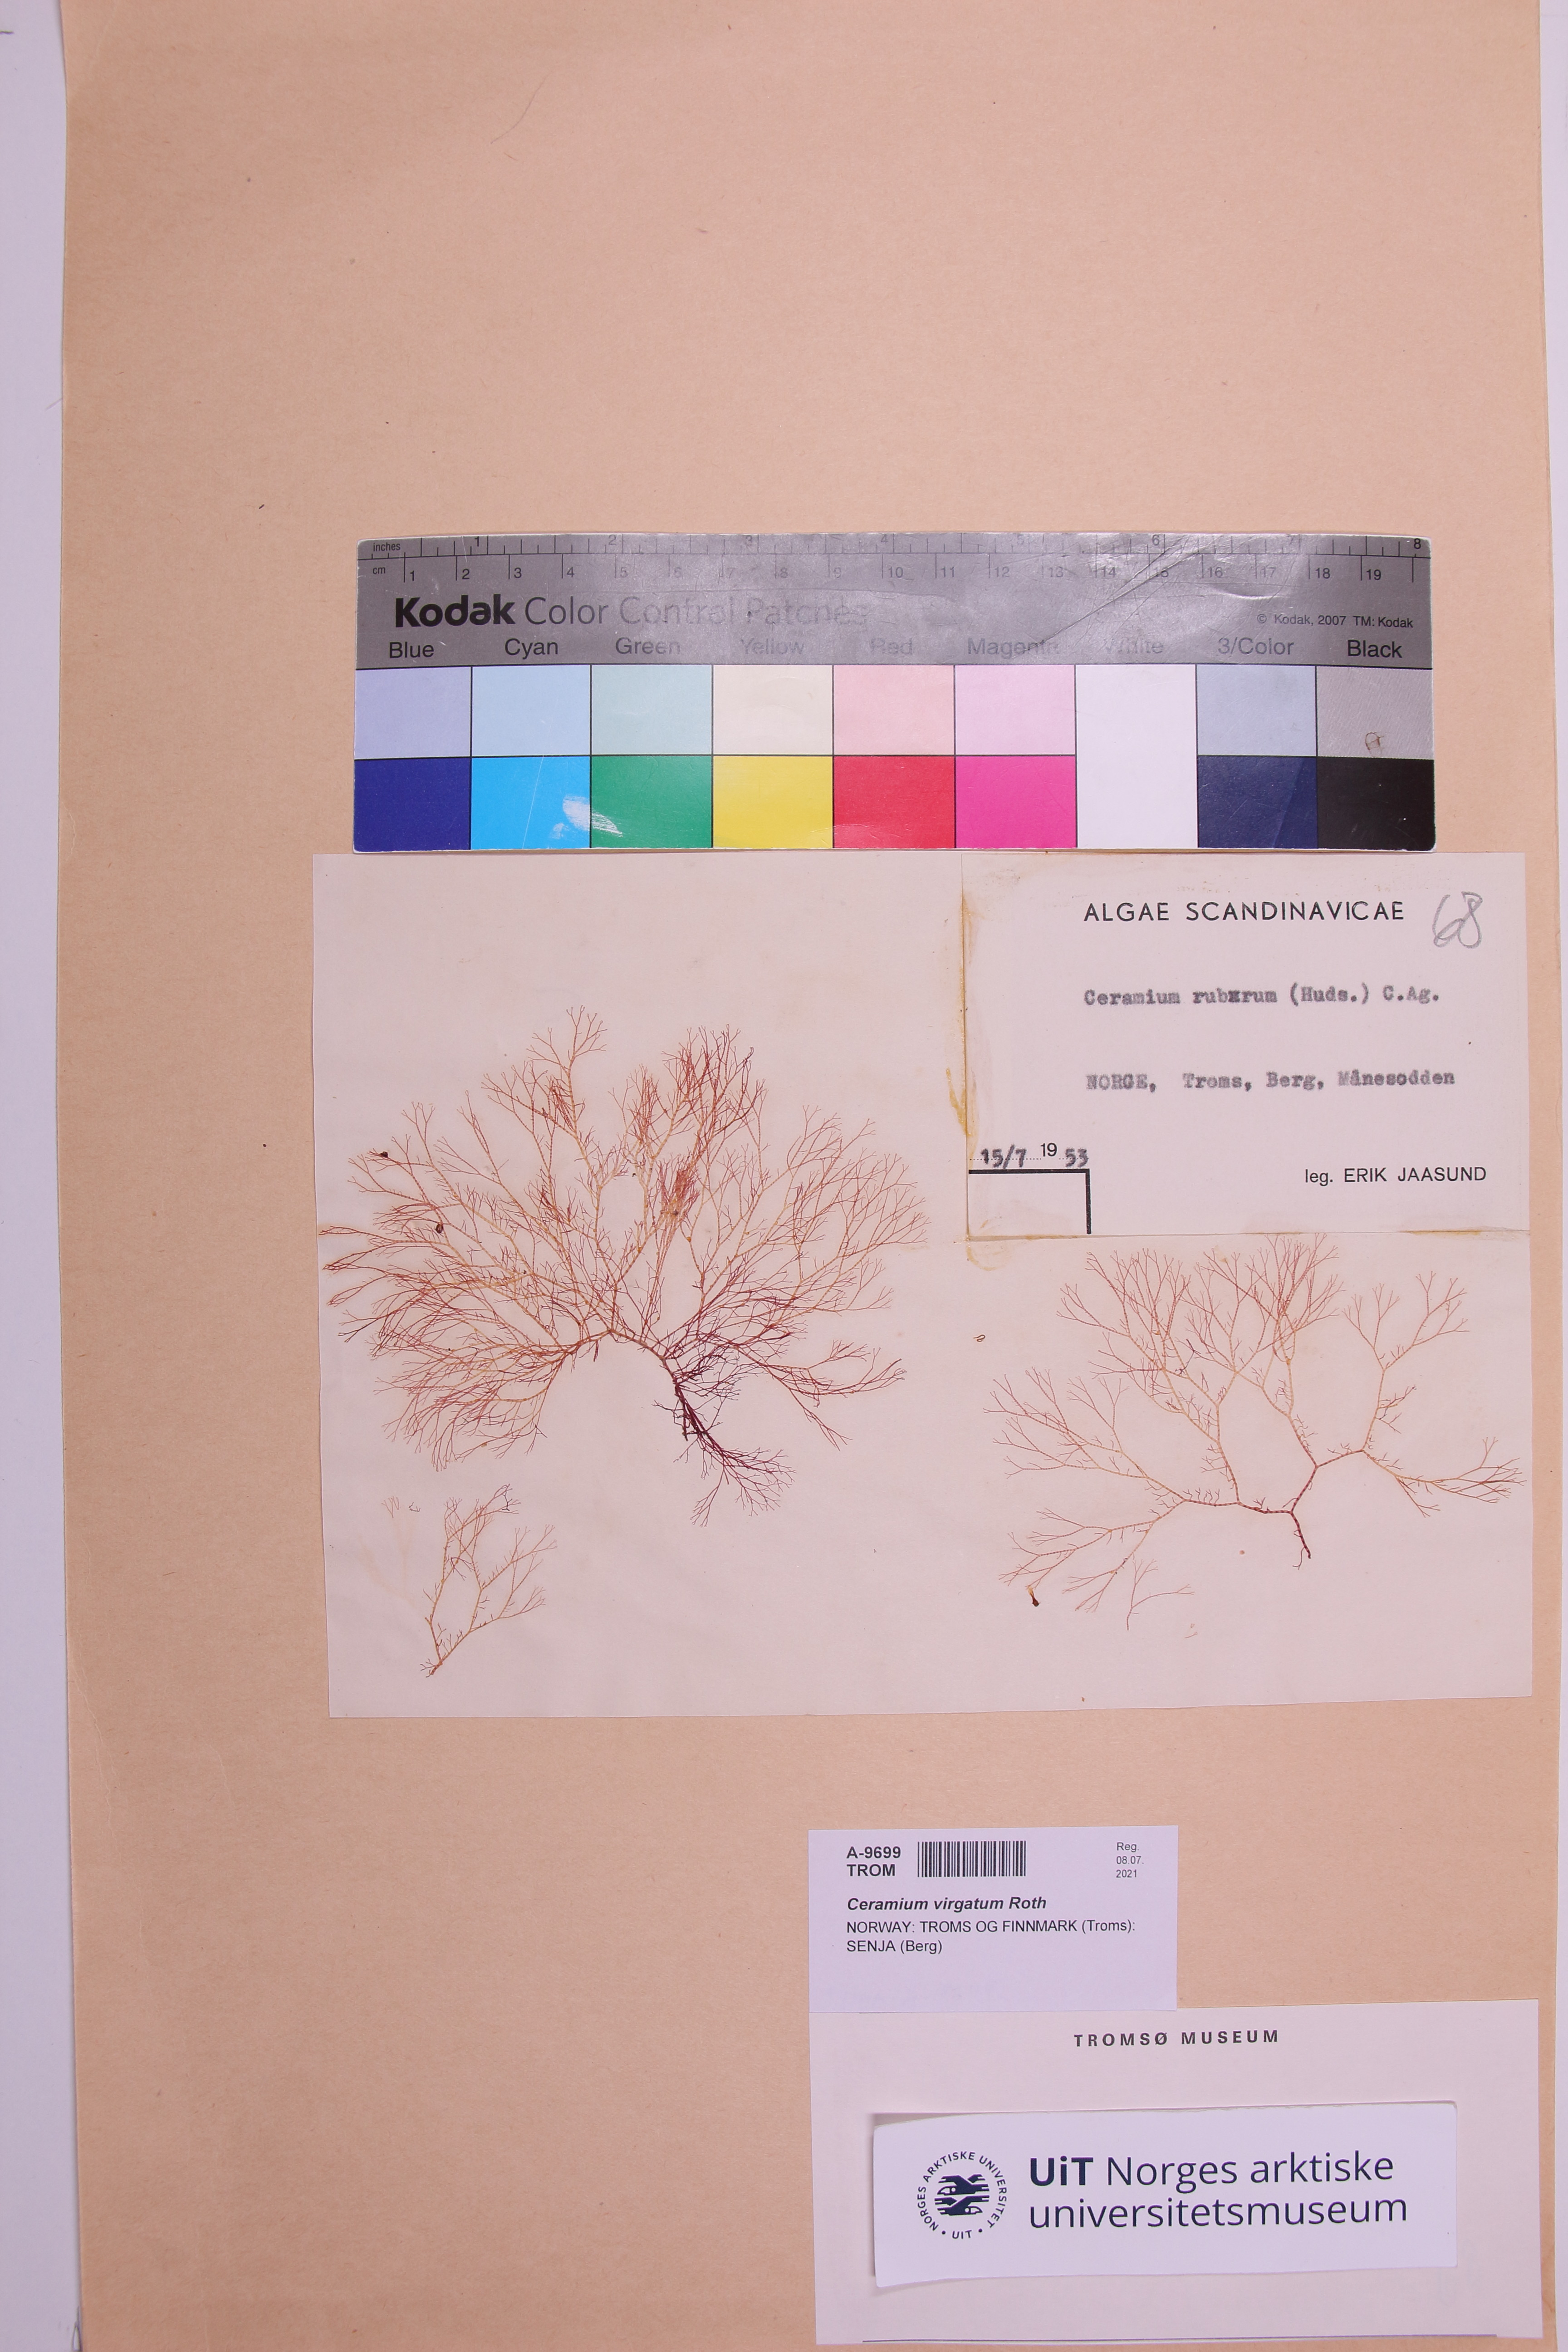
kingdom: Plantae
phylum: Rhodophyta
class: Florideophyceae
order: Ceramiales
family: Ceramiaceae
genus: Ceramium
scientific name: Ceramium virgatum
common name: Red hornweed
